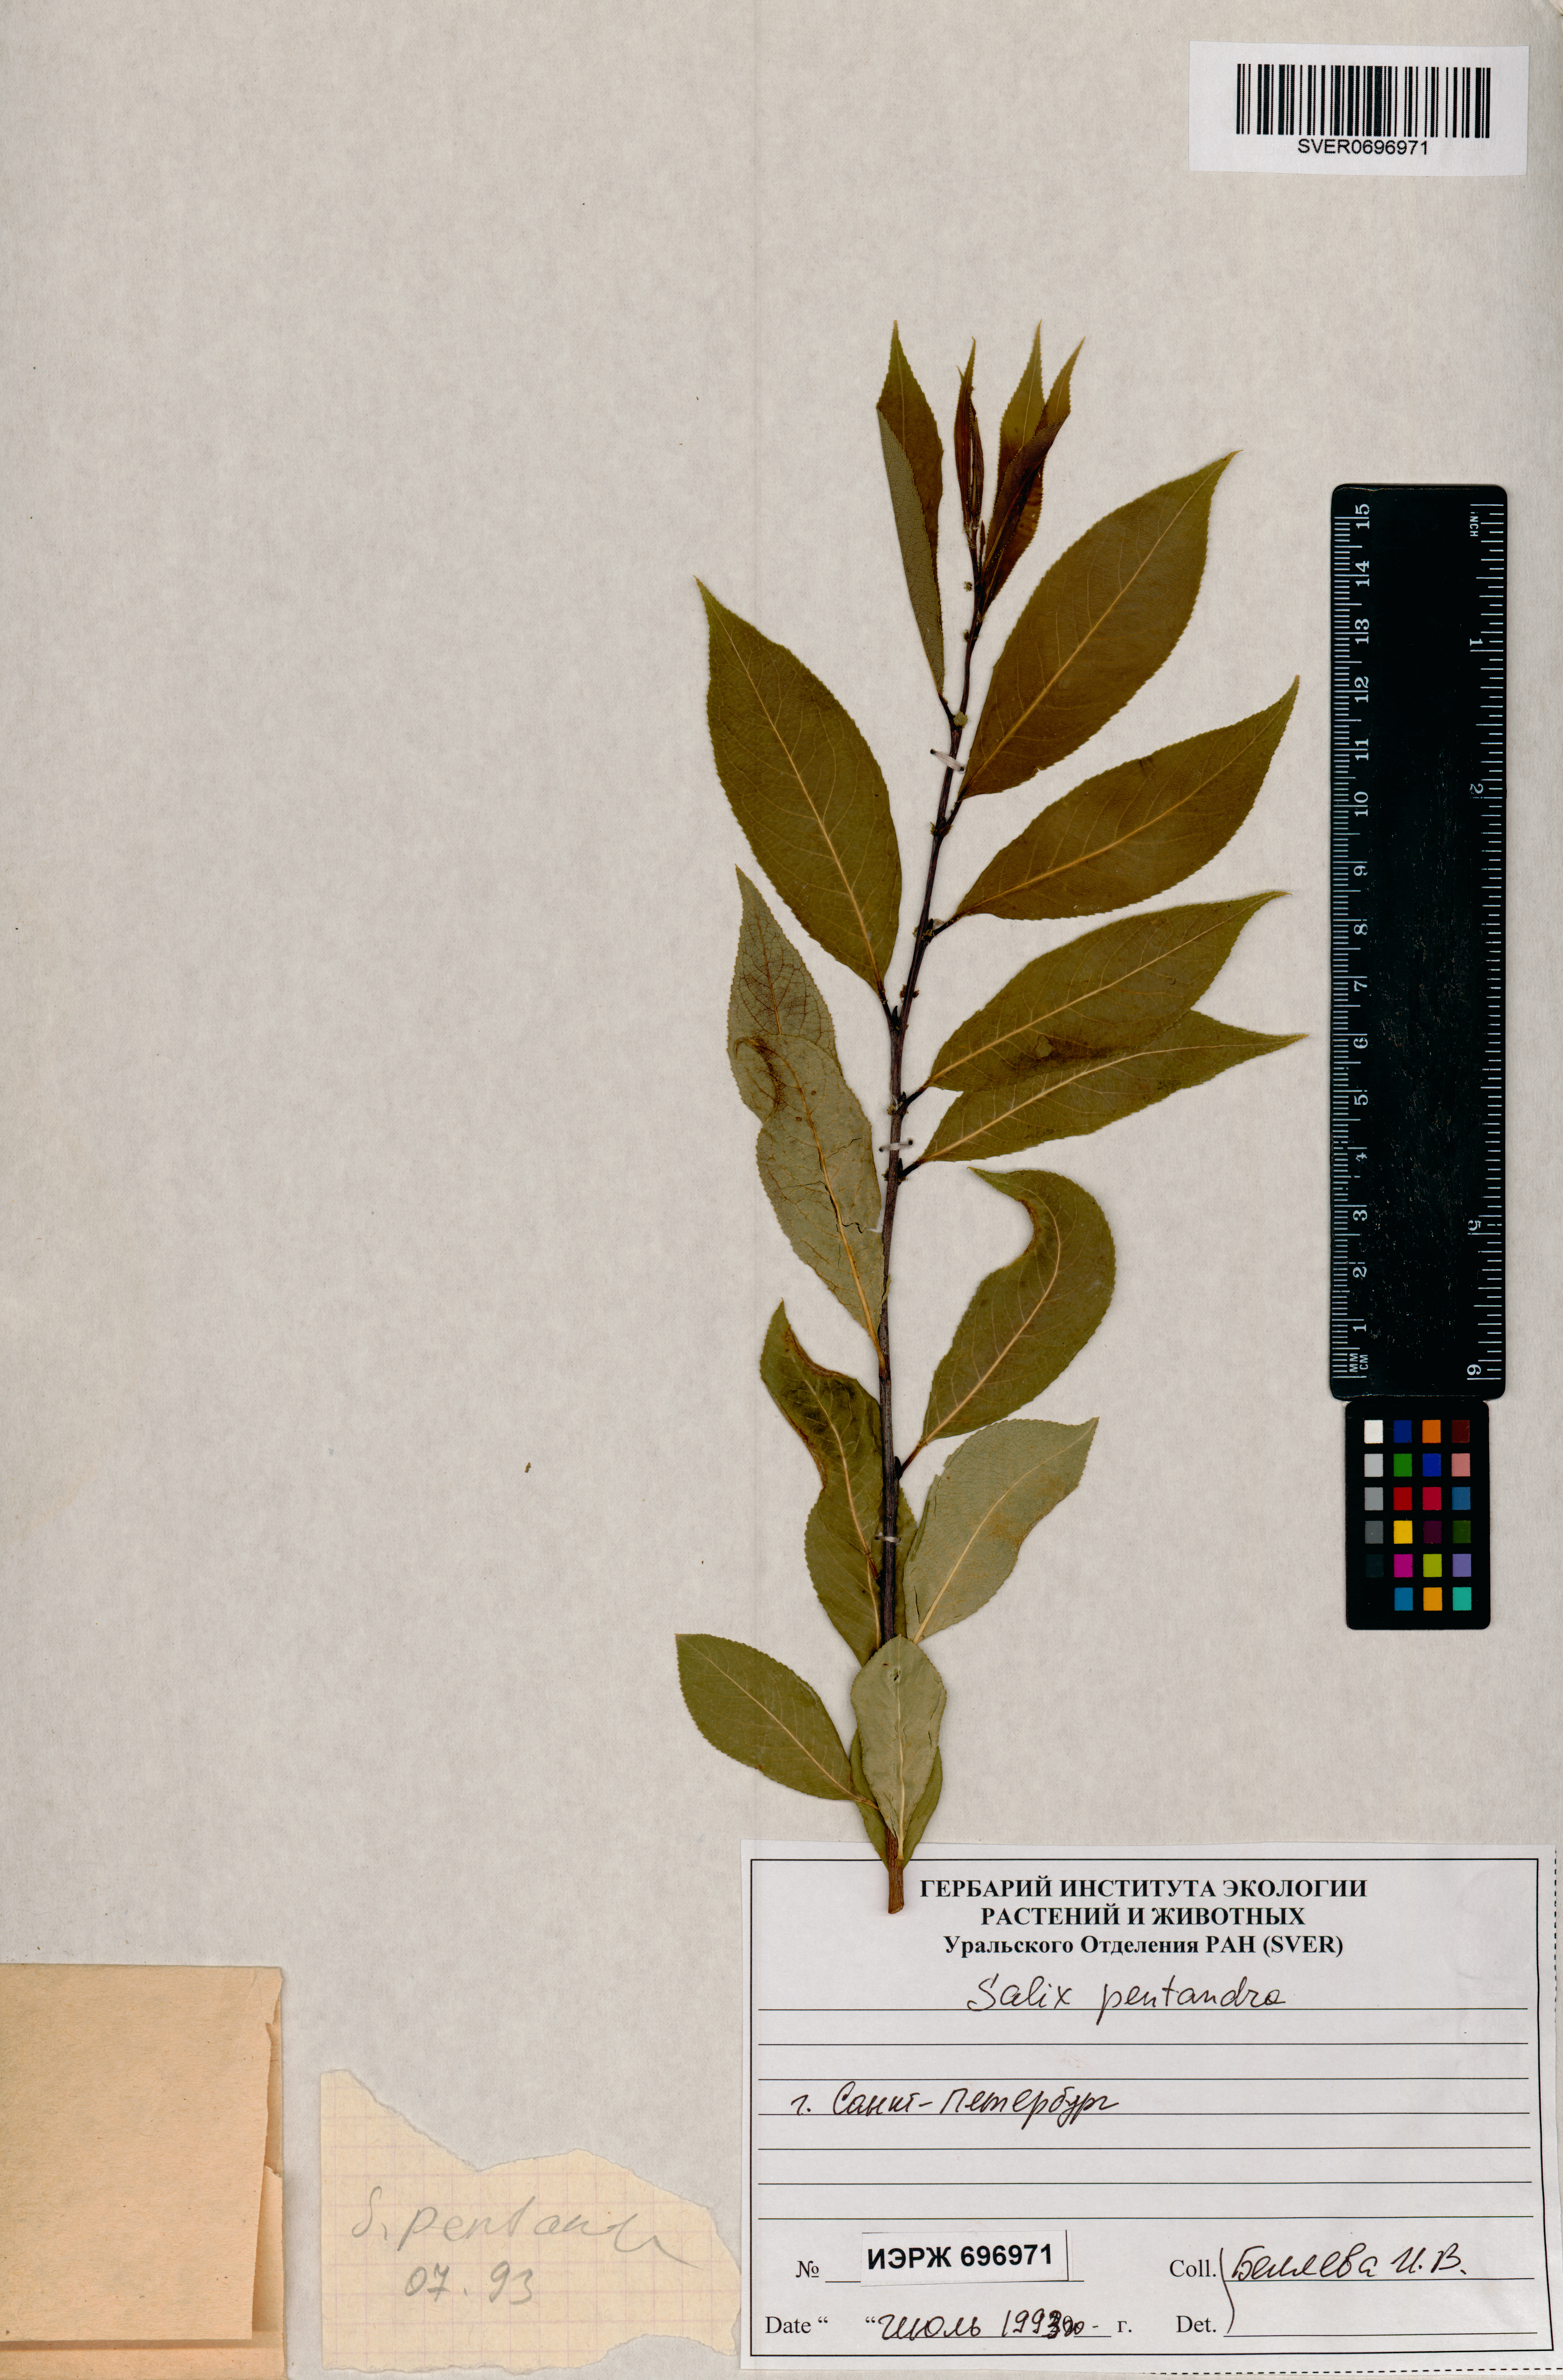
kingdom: Plantae
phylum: Tracheophyta
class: Magnoliopsida
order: Malpighiales
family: Salicaceae
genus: Salix
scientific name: Salix pentandra
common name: Bay willow
